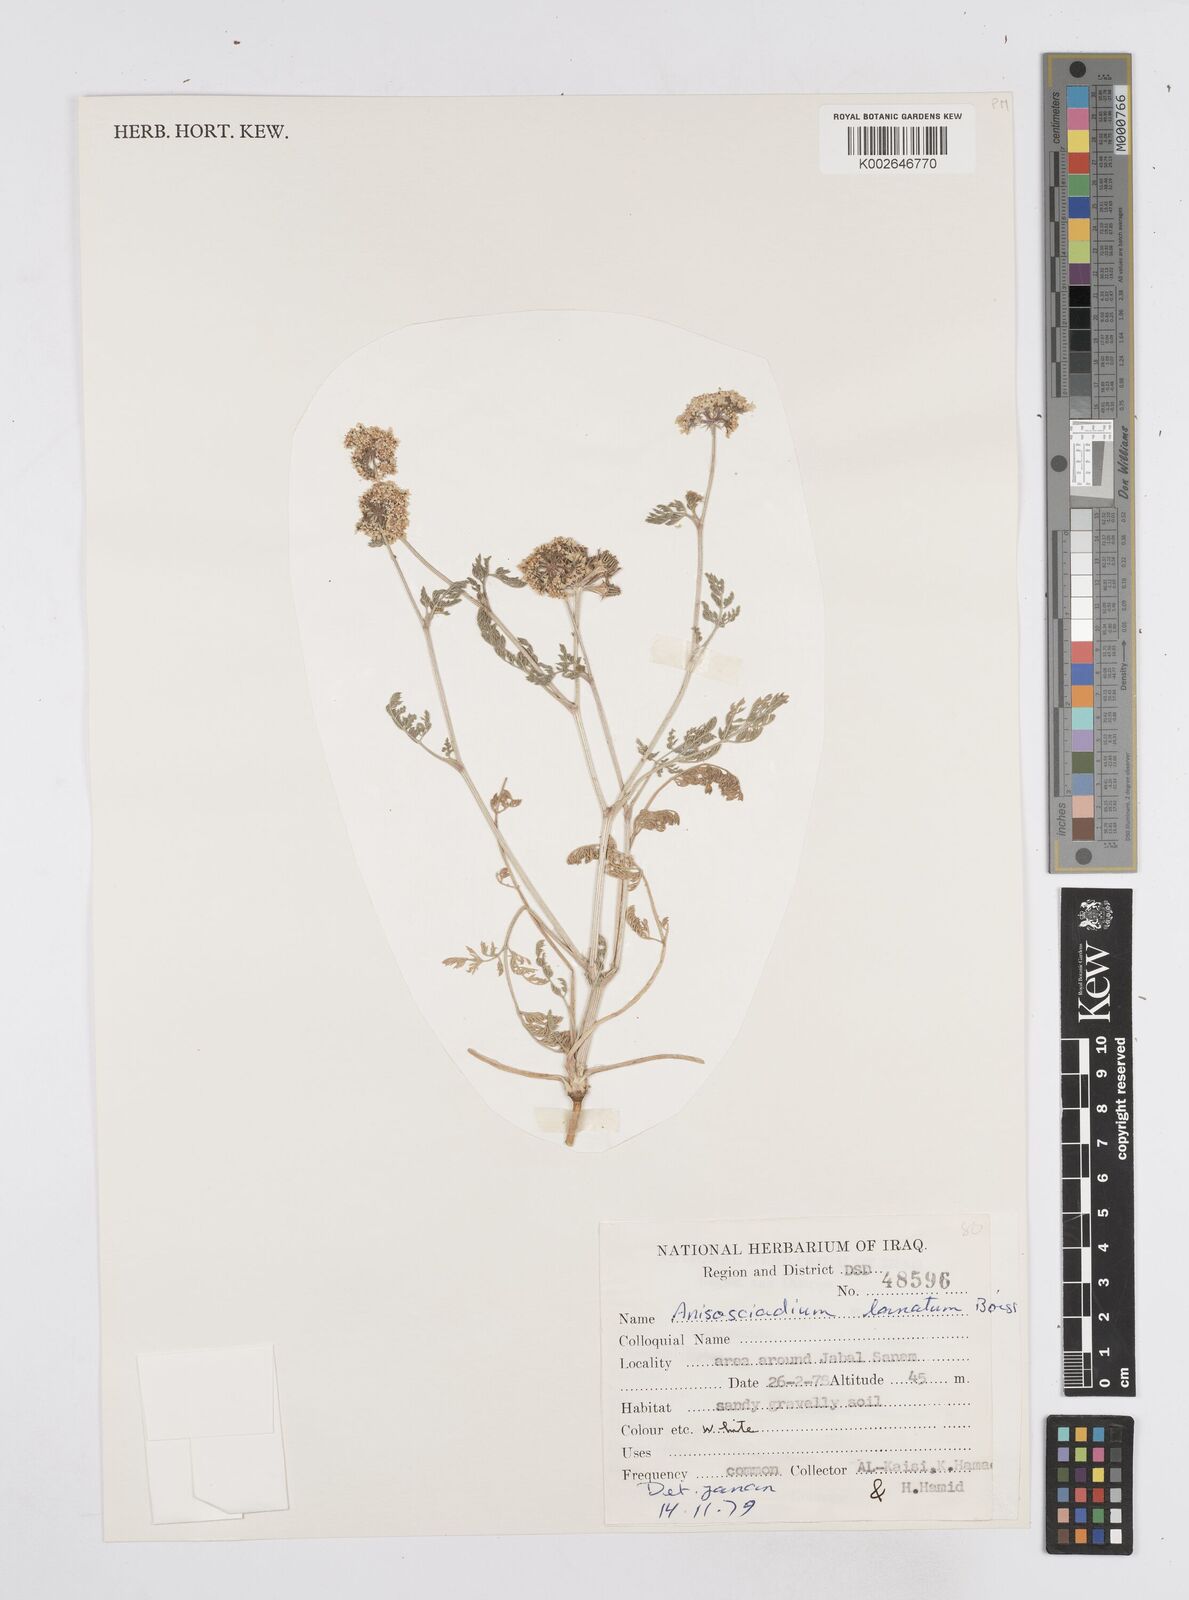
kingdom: Plantae
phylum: Tracheophyta
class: Magnoliopsida
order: Apiales
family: Apiaceae
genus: Anisosciadium
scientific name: Anisosciadium lanatum
